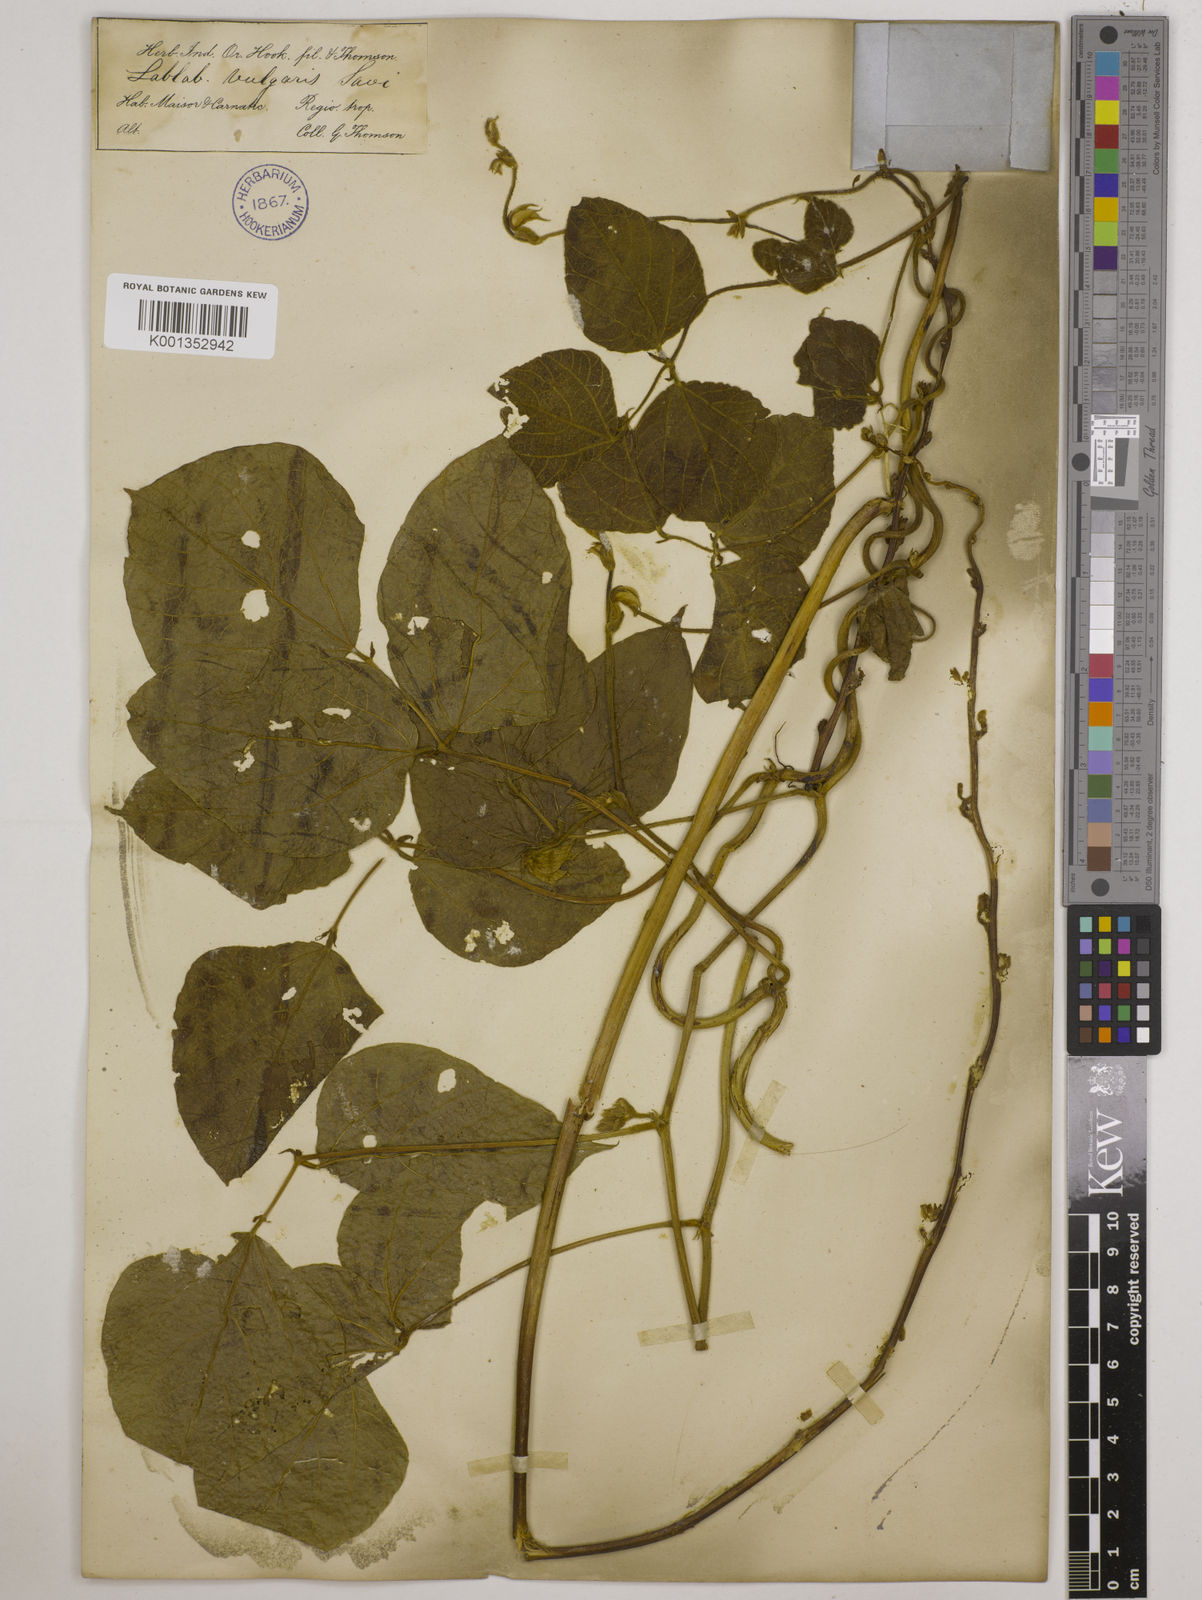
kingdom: Plantae
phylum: Tracheophyta
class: Magnoliopsida
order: Fabales
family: Fabaceae
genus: Lablab
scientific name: Lablab purpureus
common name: Lablab-bean
